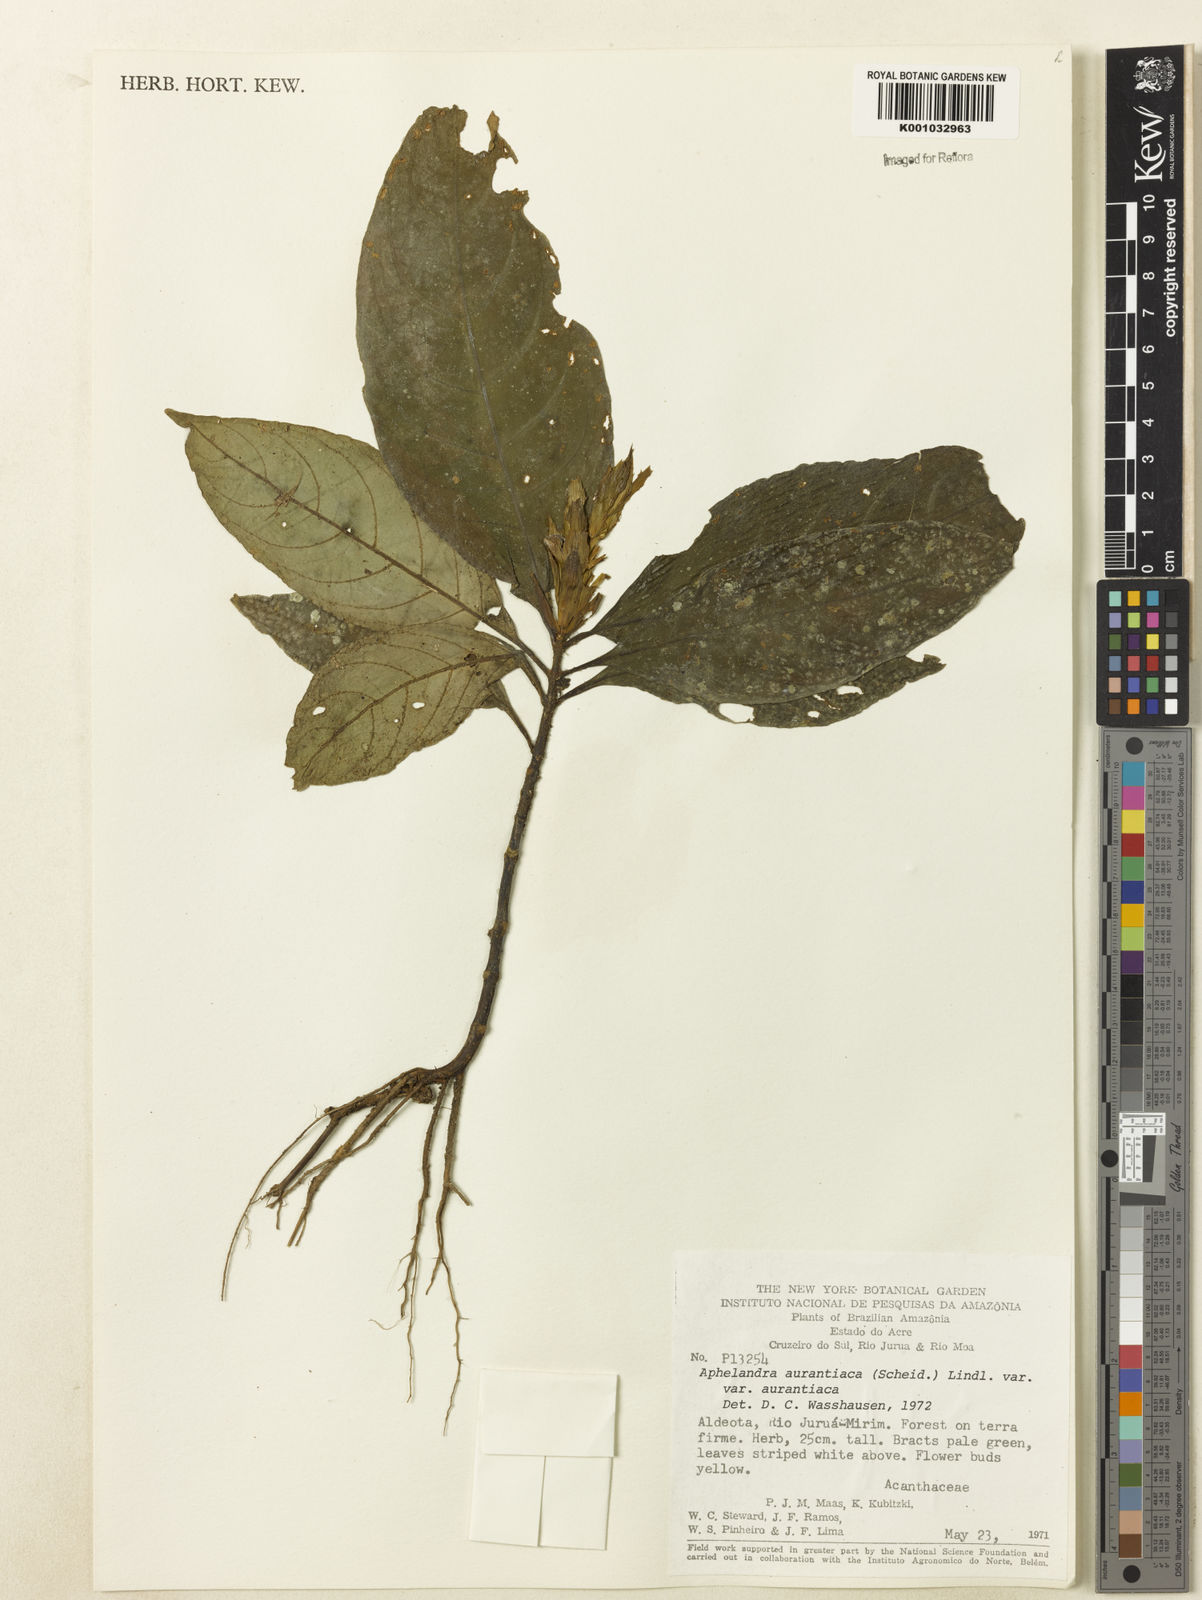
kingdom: Plantae
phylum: Tracheophyta
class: Magnoliopsida
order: Lamiales
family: Acanthaceae
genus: Aphelandra
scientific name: Aphelandra aurantiaca
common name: Fiery spike
